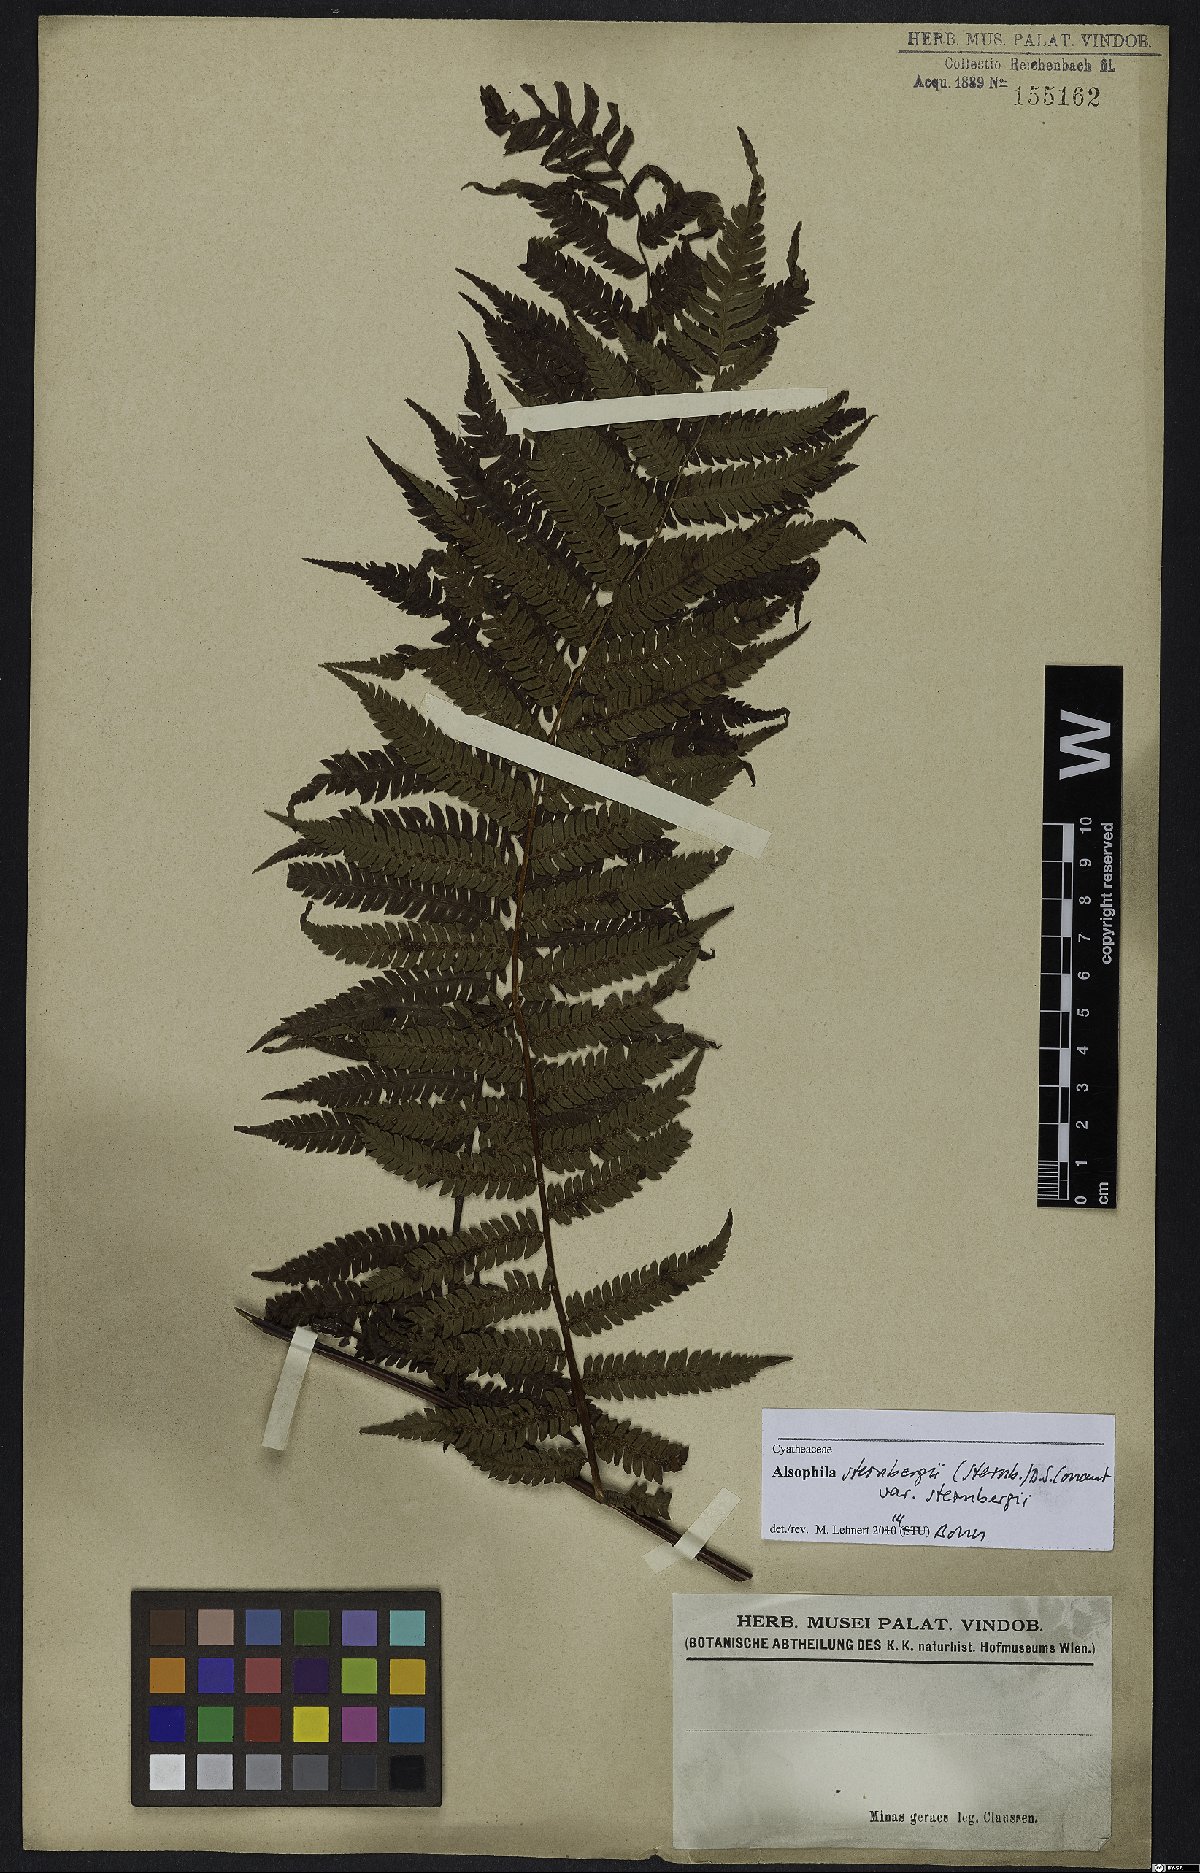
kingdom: Plantae
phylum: Tracheophyta
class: Polypodiopsida
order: Cyatheales
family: Cyatheaceae
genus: Alsophila
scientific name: Alsophila sternbergii
